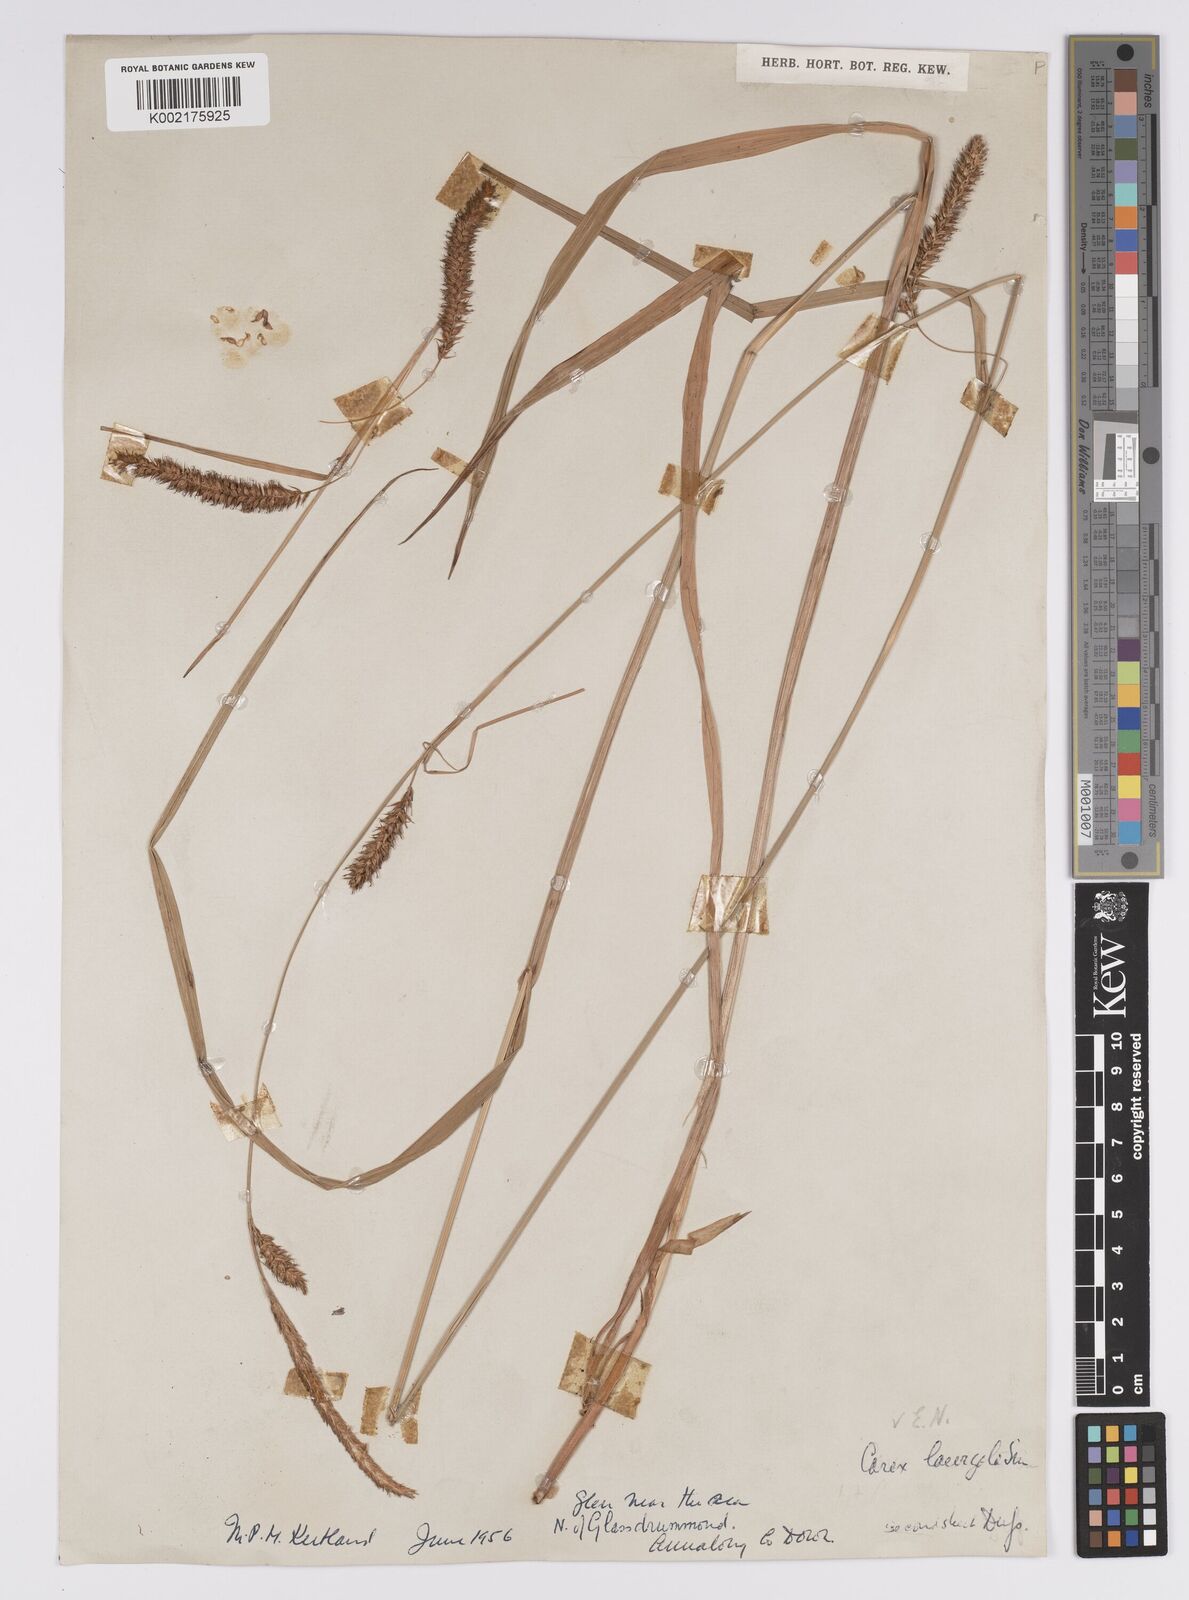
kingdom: Plantae
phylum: Tracheophyta
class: Liliopsida
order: Poales
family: Cyperaceae
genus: Carex
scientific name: Carex laevigata
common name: Smooth-stalked sedge
